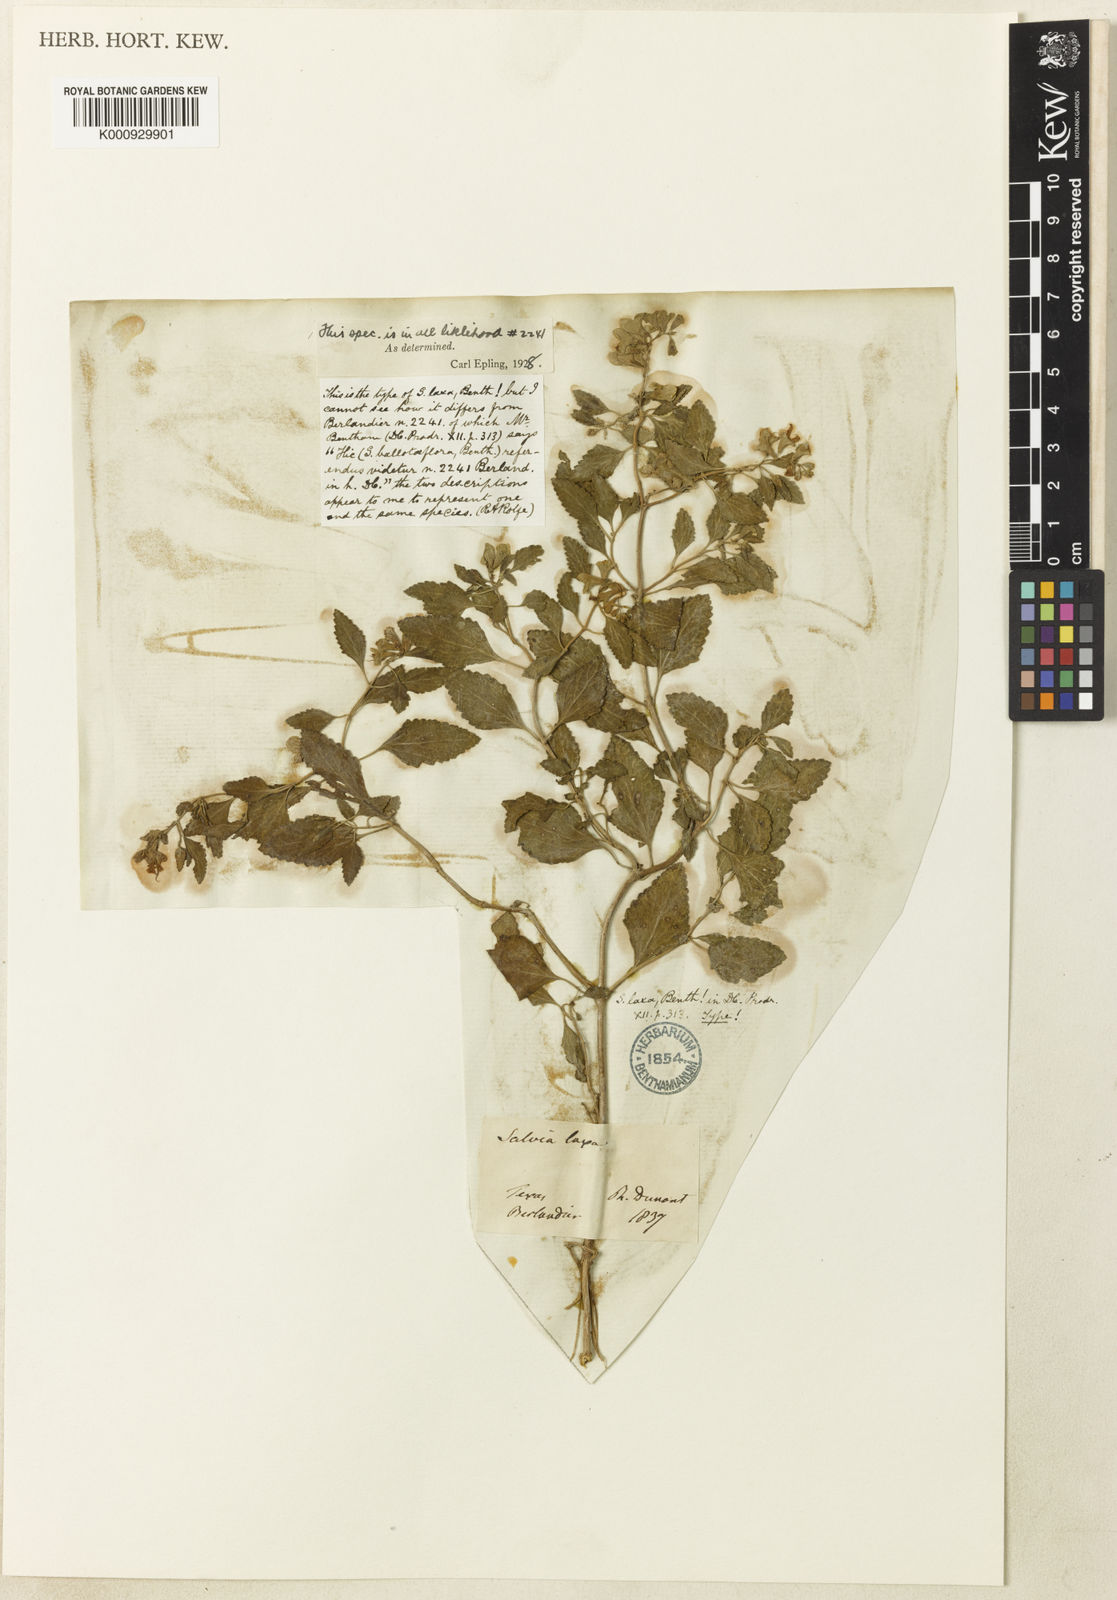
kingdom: Plantae
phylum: Tracheophyta
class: Magnoliopsida
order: Lamiales
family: Lamiaceae
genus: Salvia
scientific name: Salvia ballotiflora
